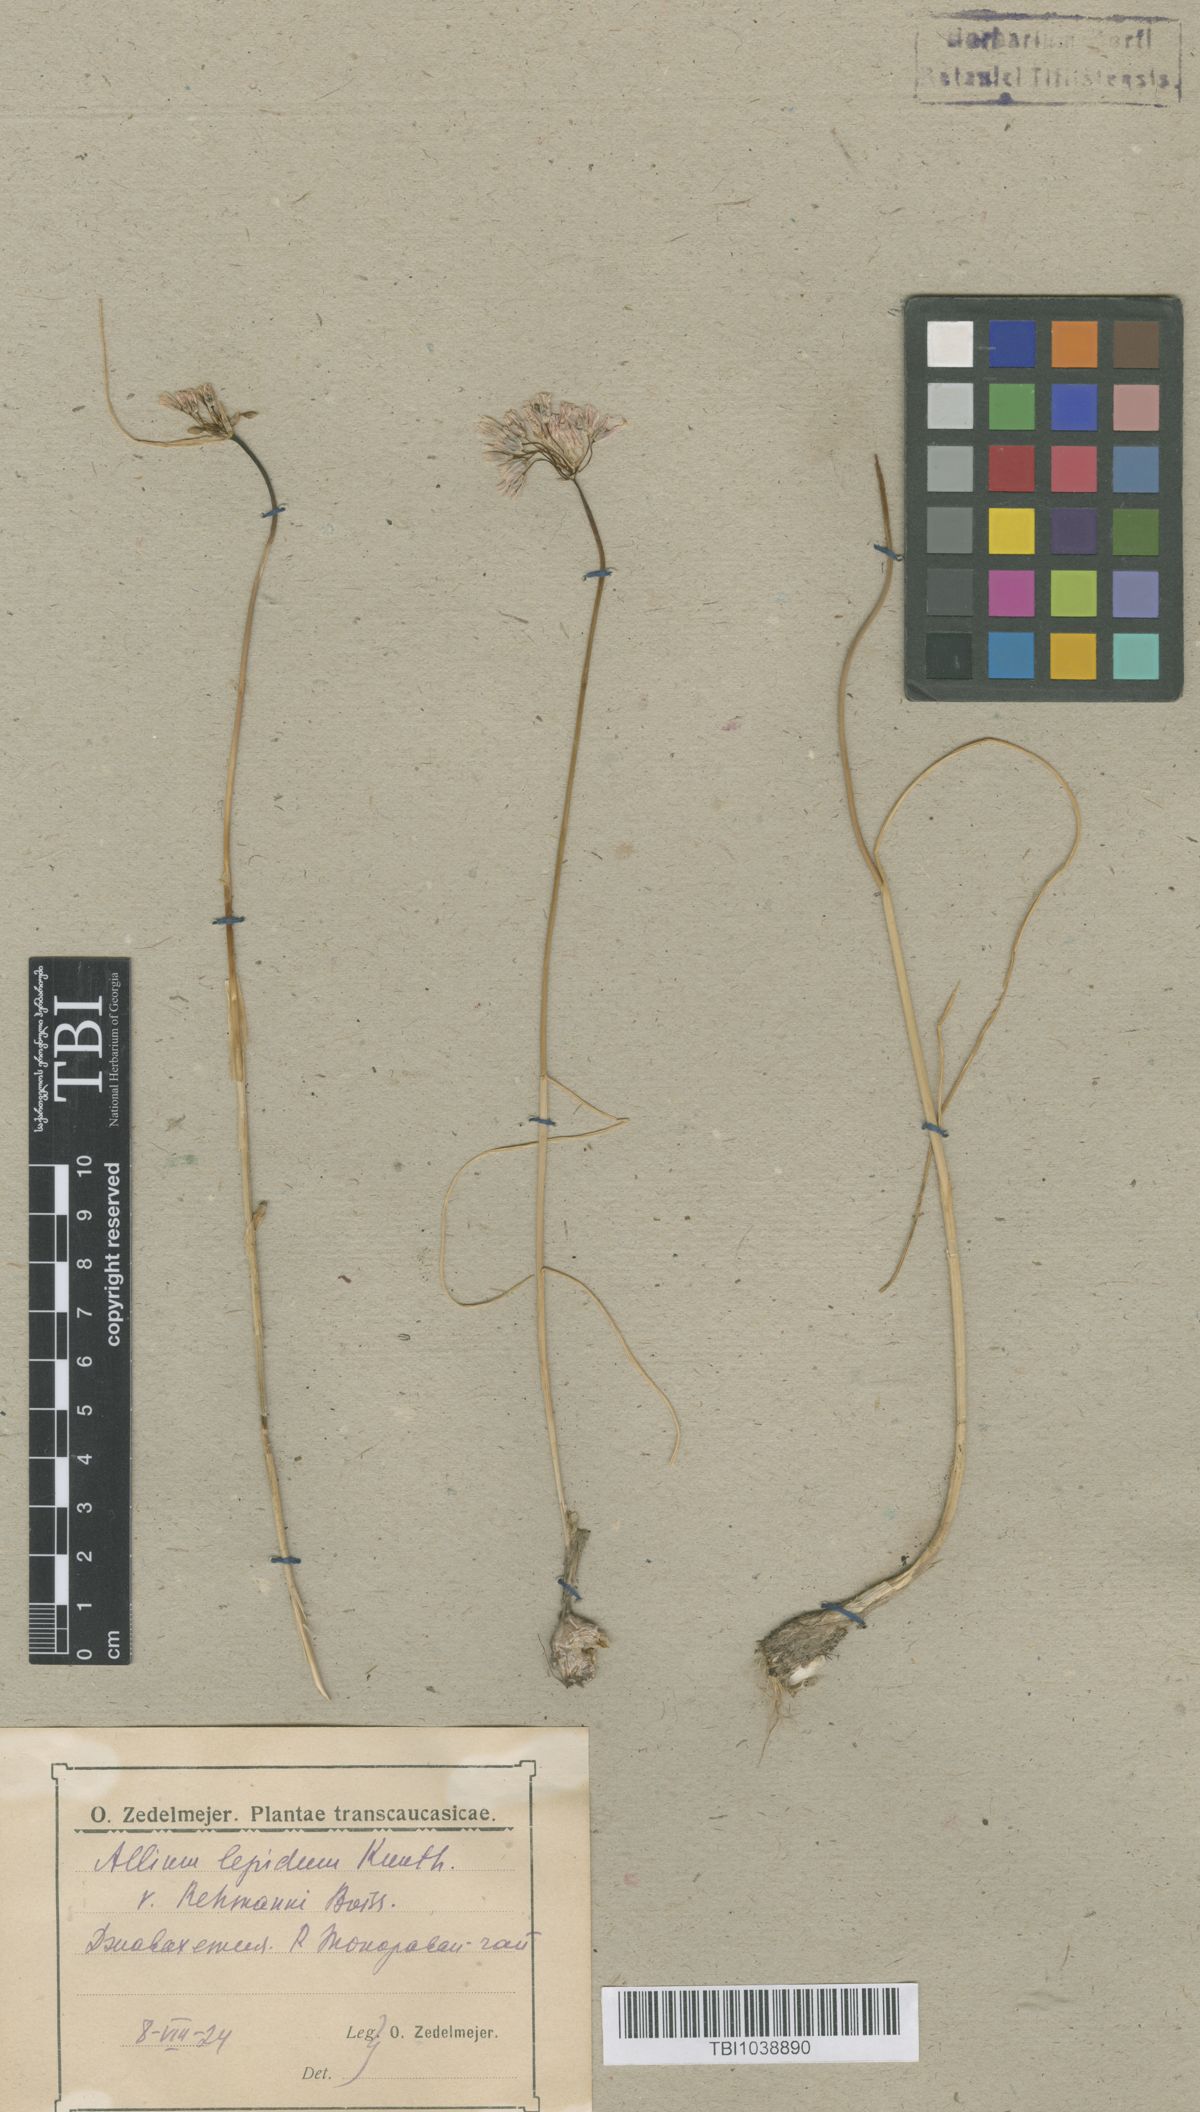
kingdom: Plantae
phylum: Tracheophyta
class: Liliopsida
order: Asparagales
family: Amaryllidaceae
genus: Allium
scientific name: Allium paniculatum
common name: Pale garlic
